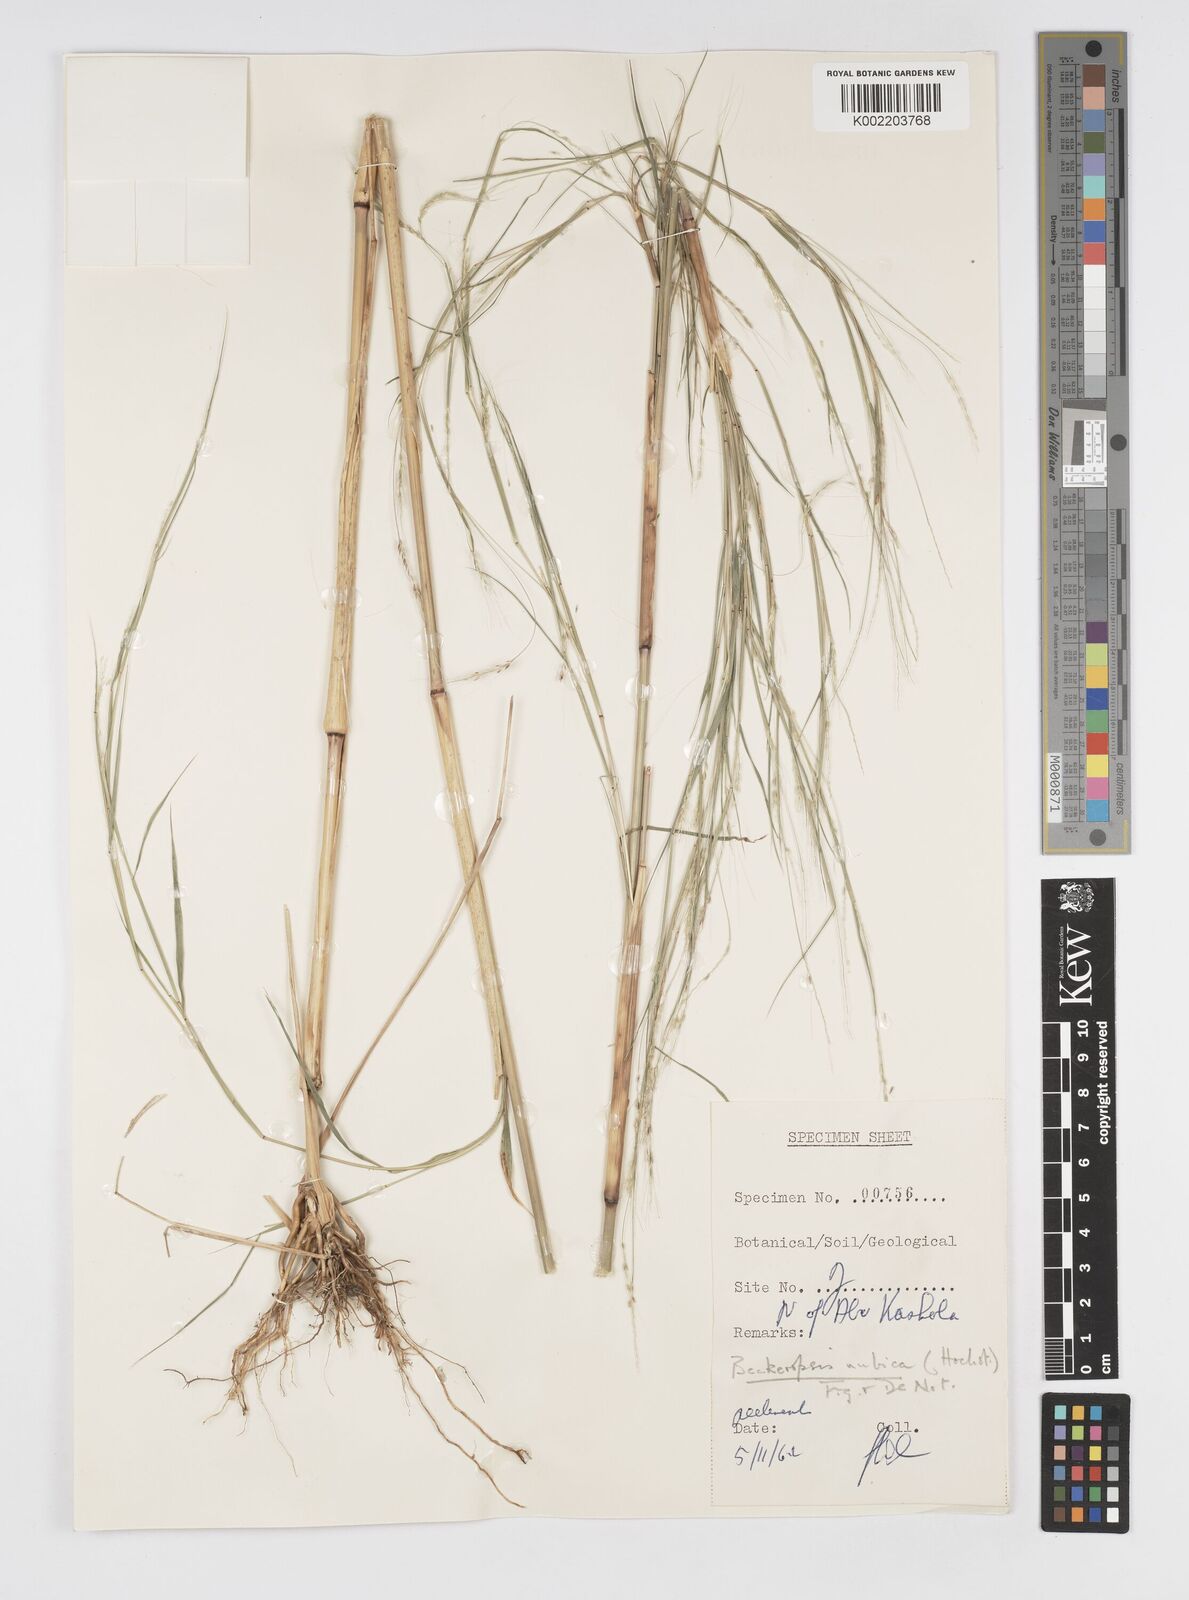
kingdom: Plantae
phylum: Tracheophyta
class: Liliopsida
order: Poales
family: Poaceae
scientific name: Poaceae
